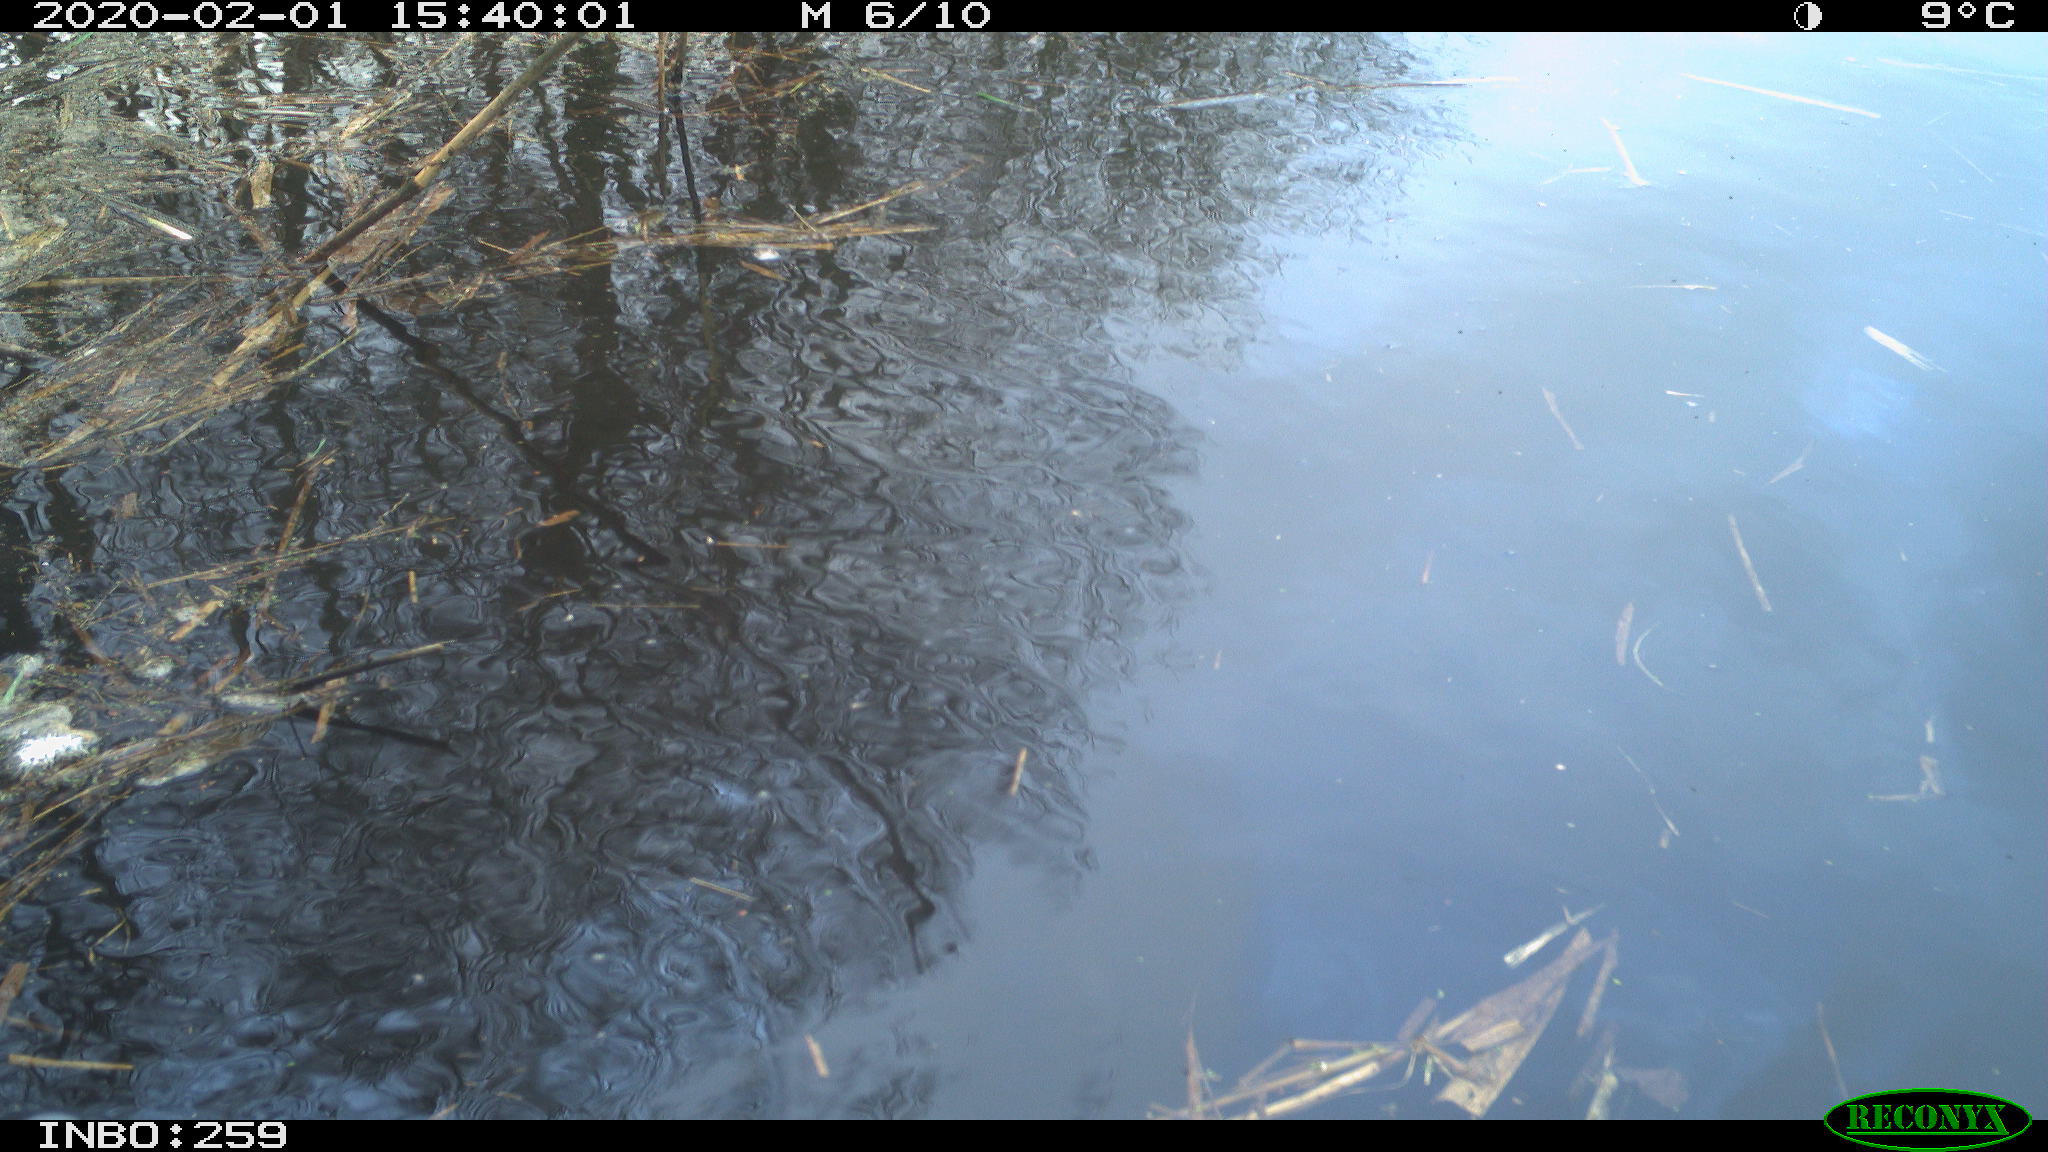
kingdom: Animalia
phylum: Chordata
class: Aves
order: Gruiformes
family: Rallidae
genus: Gallinula
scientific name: Gallinula chloropus
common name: Common moorhen
